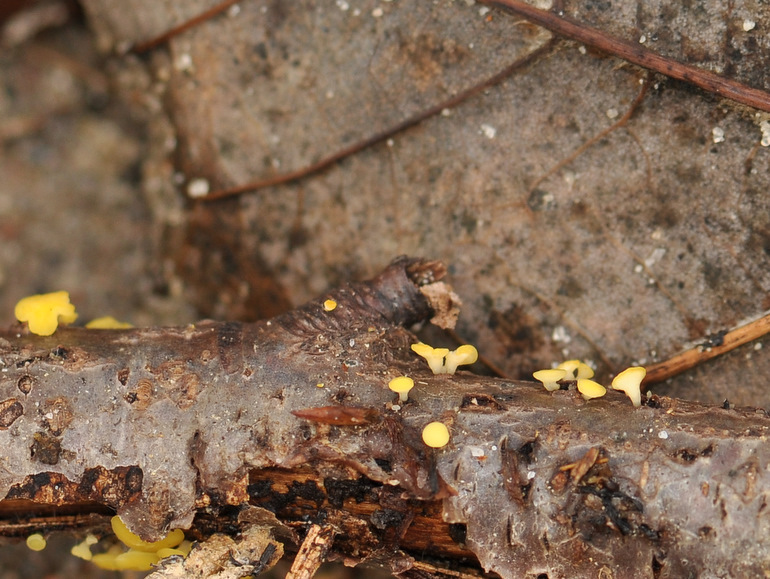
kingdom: Fungi
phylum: Ascomycota
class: Leotiomycetes
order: Helotiales
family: Helotiaceae
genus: Hymenoscyphus
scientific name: Hymenoscyphus calyculus
